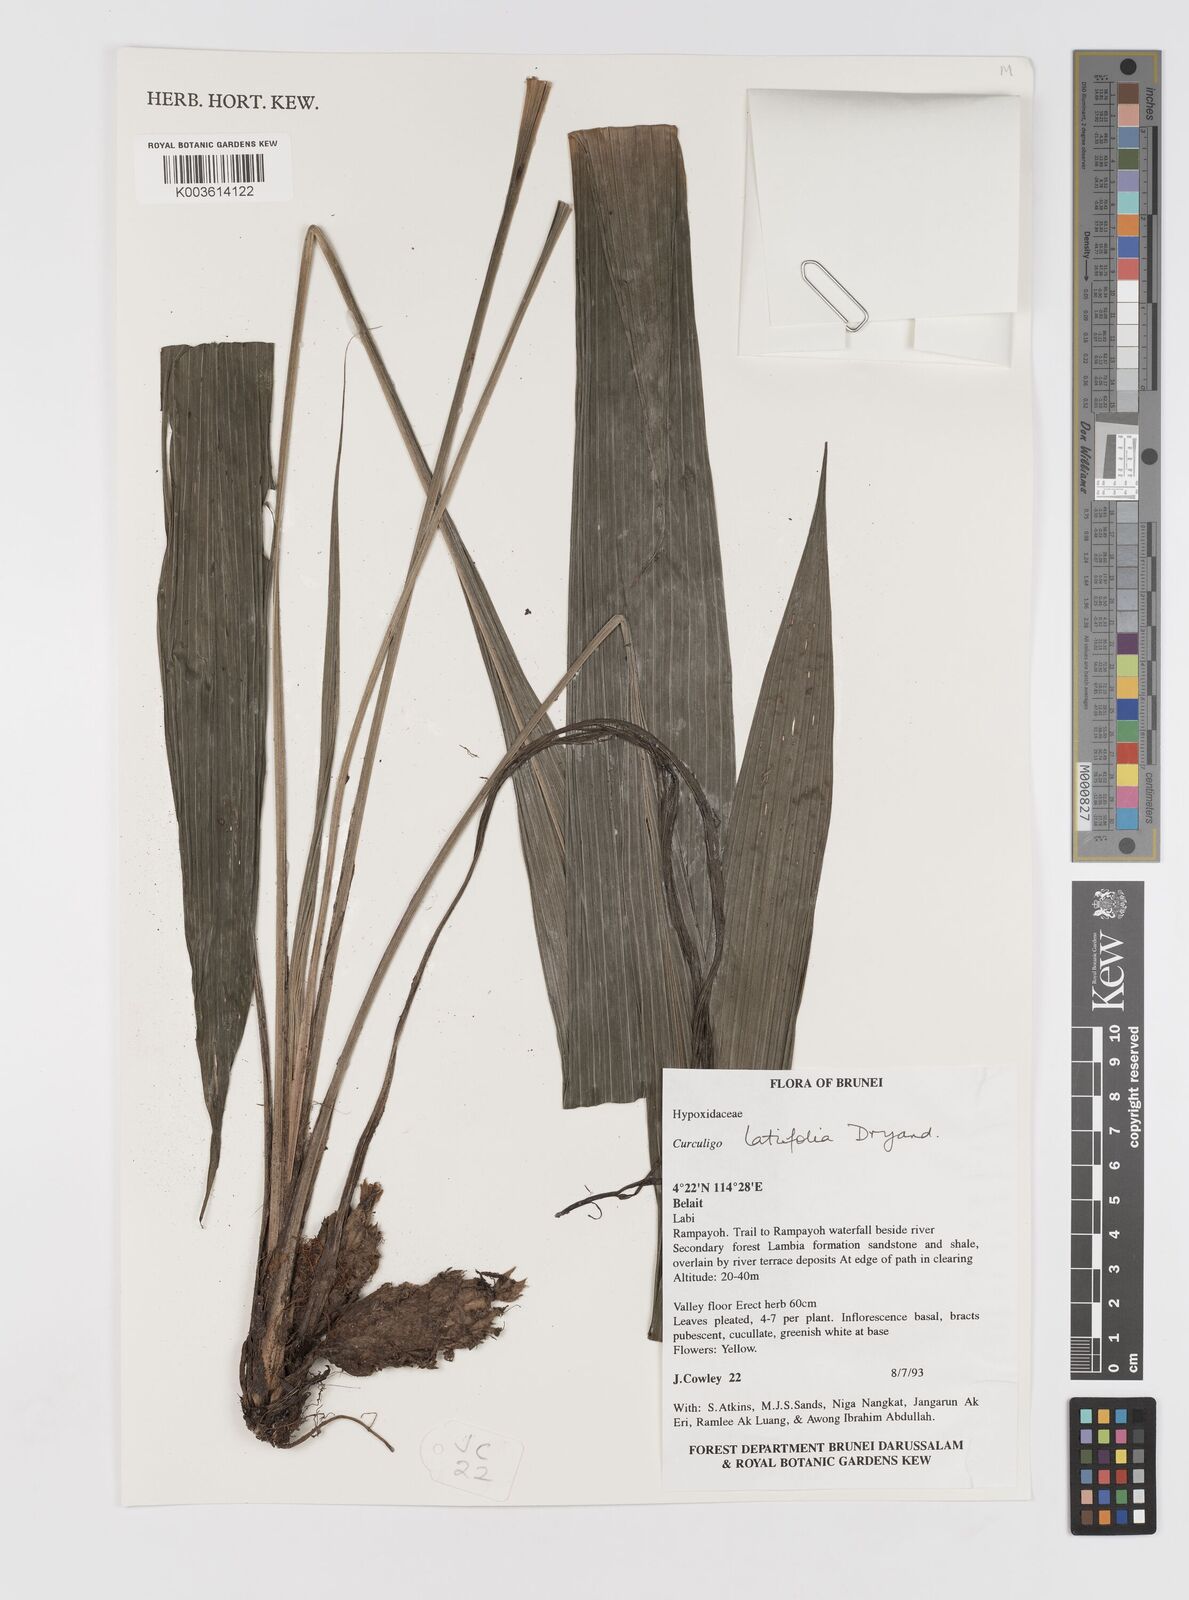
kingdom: Plantae
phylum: Tracheophyta
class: Liliopsida
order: Asparagales
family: Hypoxidaceae
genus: Curculigo
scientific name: Curculigo latifolia
